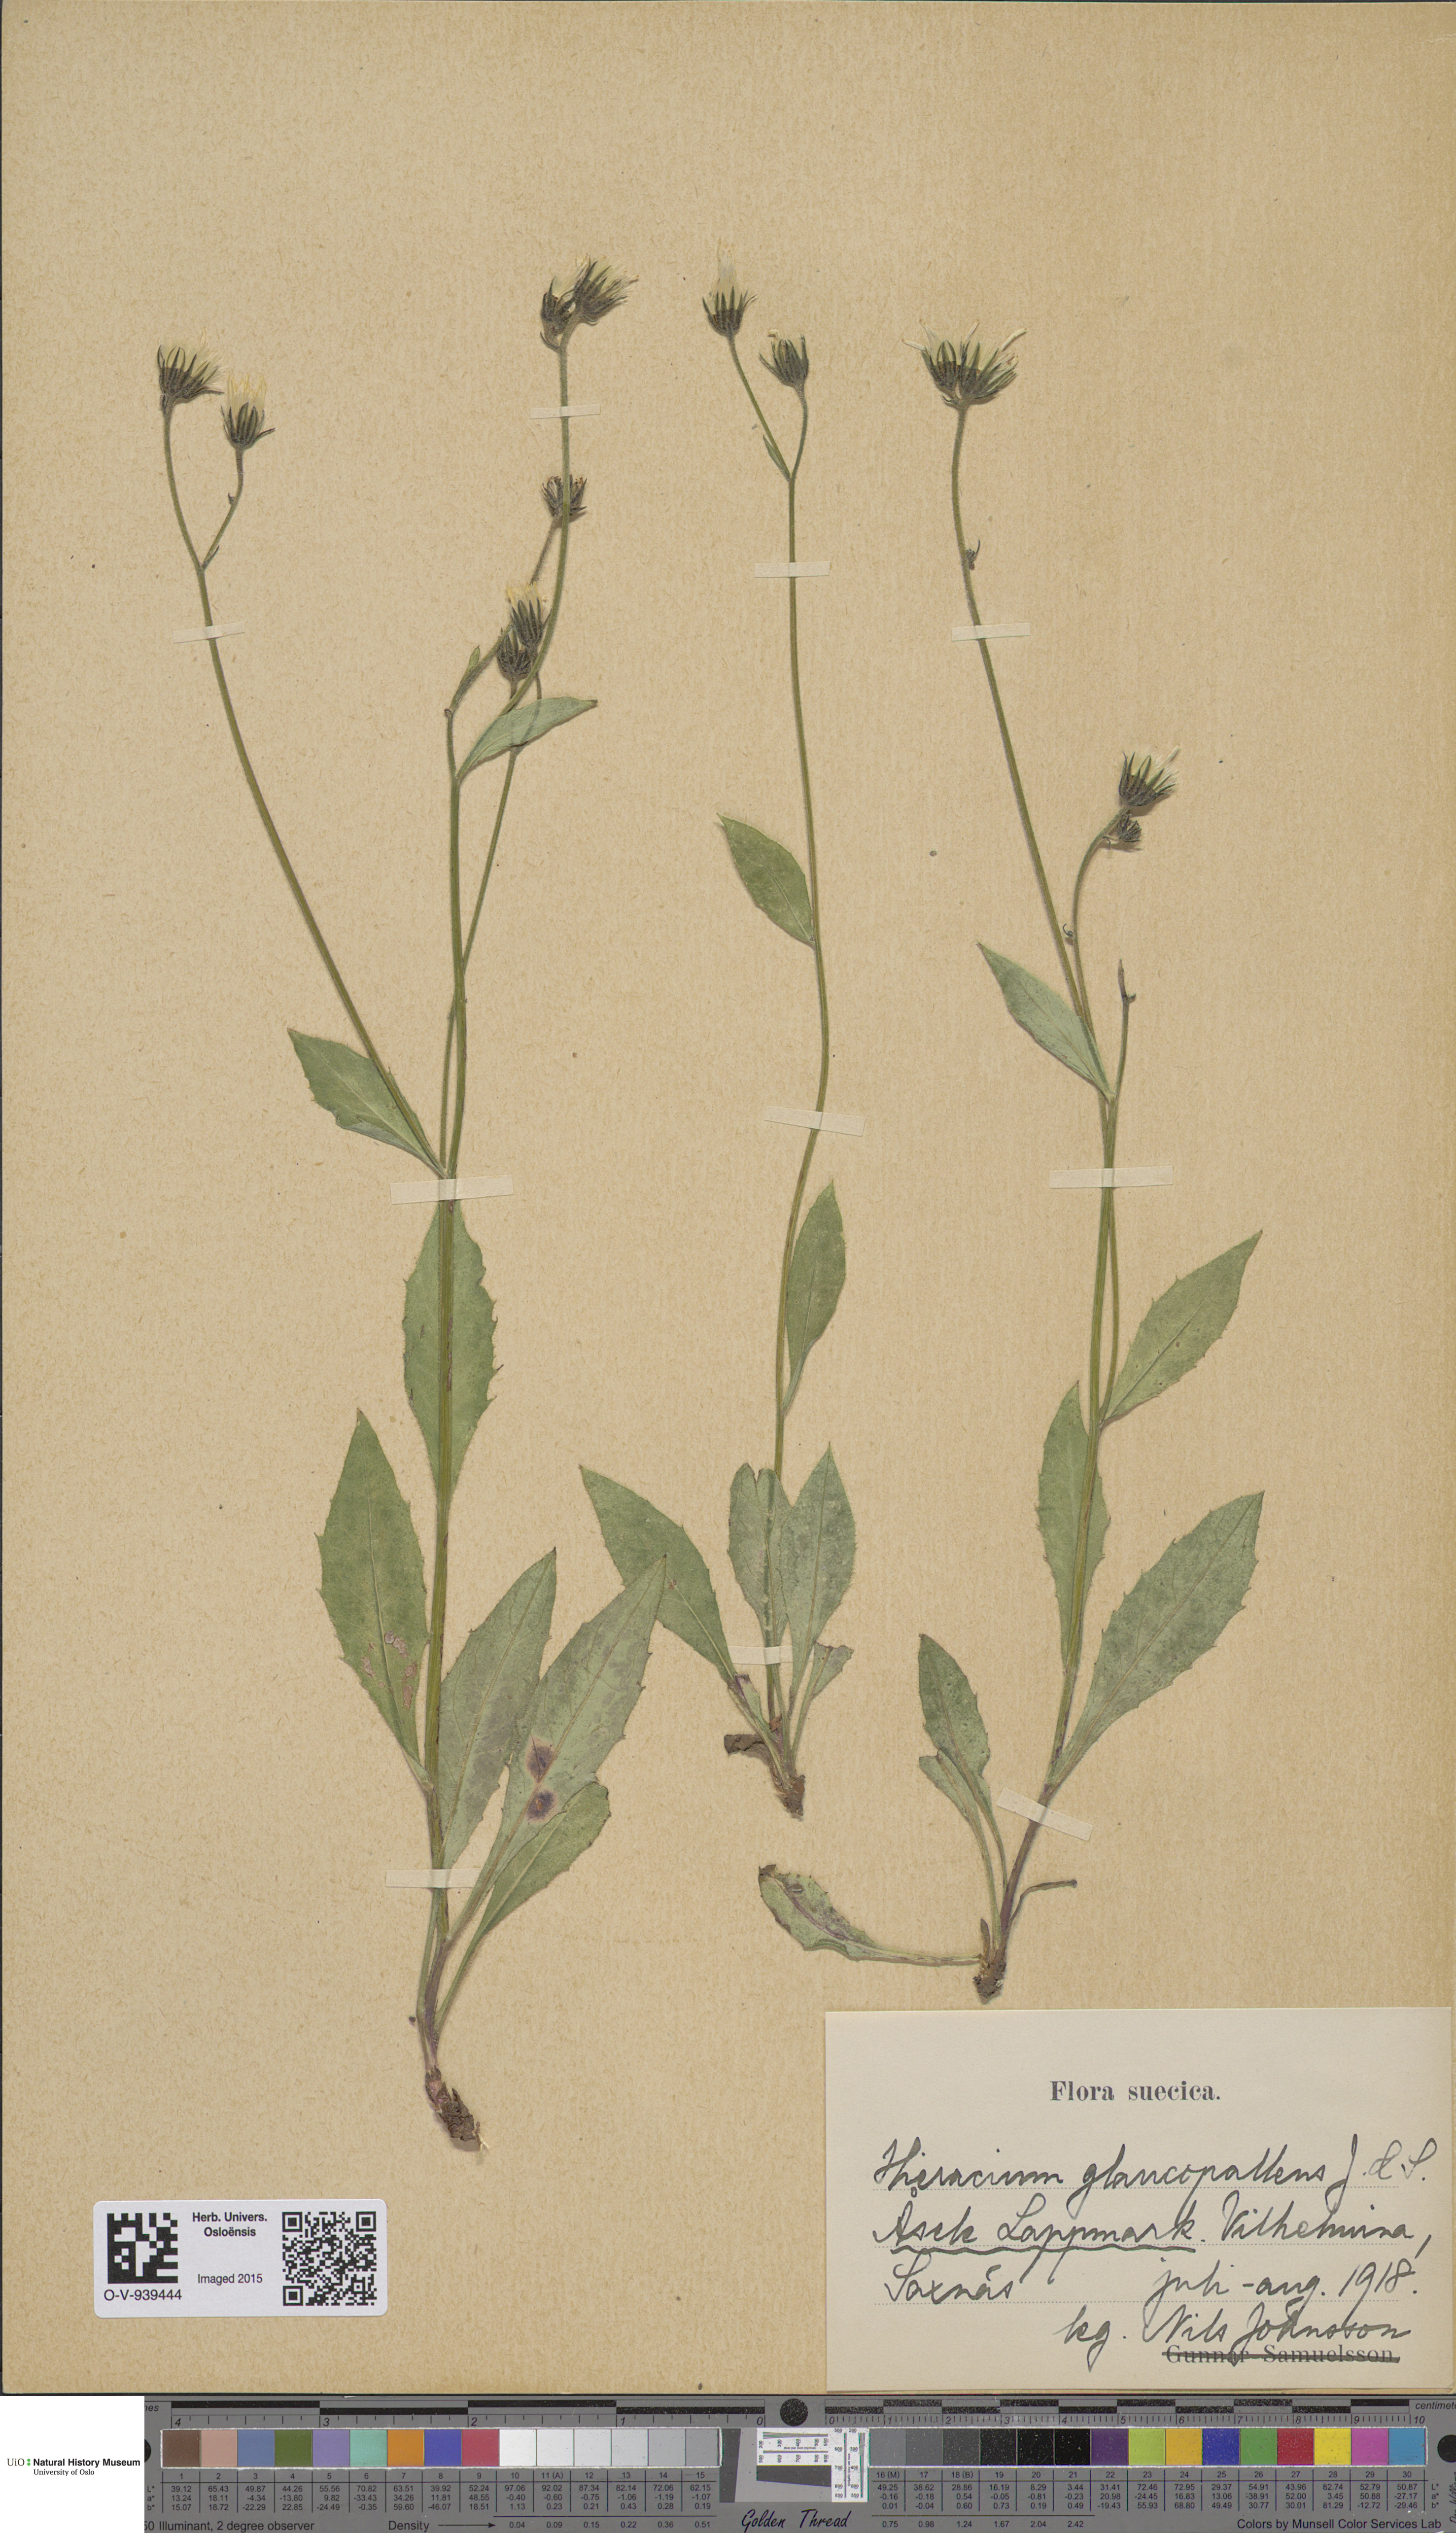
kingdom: Plantae
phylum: Tracheophyta
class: Magnoliopsida
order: Asterales
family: Asteraceae
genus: Hieracium
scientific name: Hieracium
